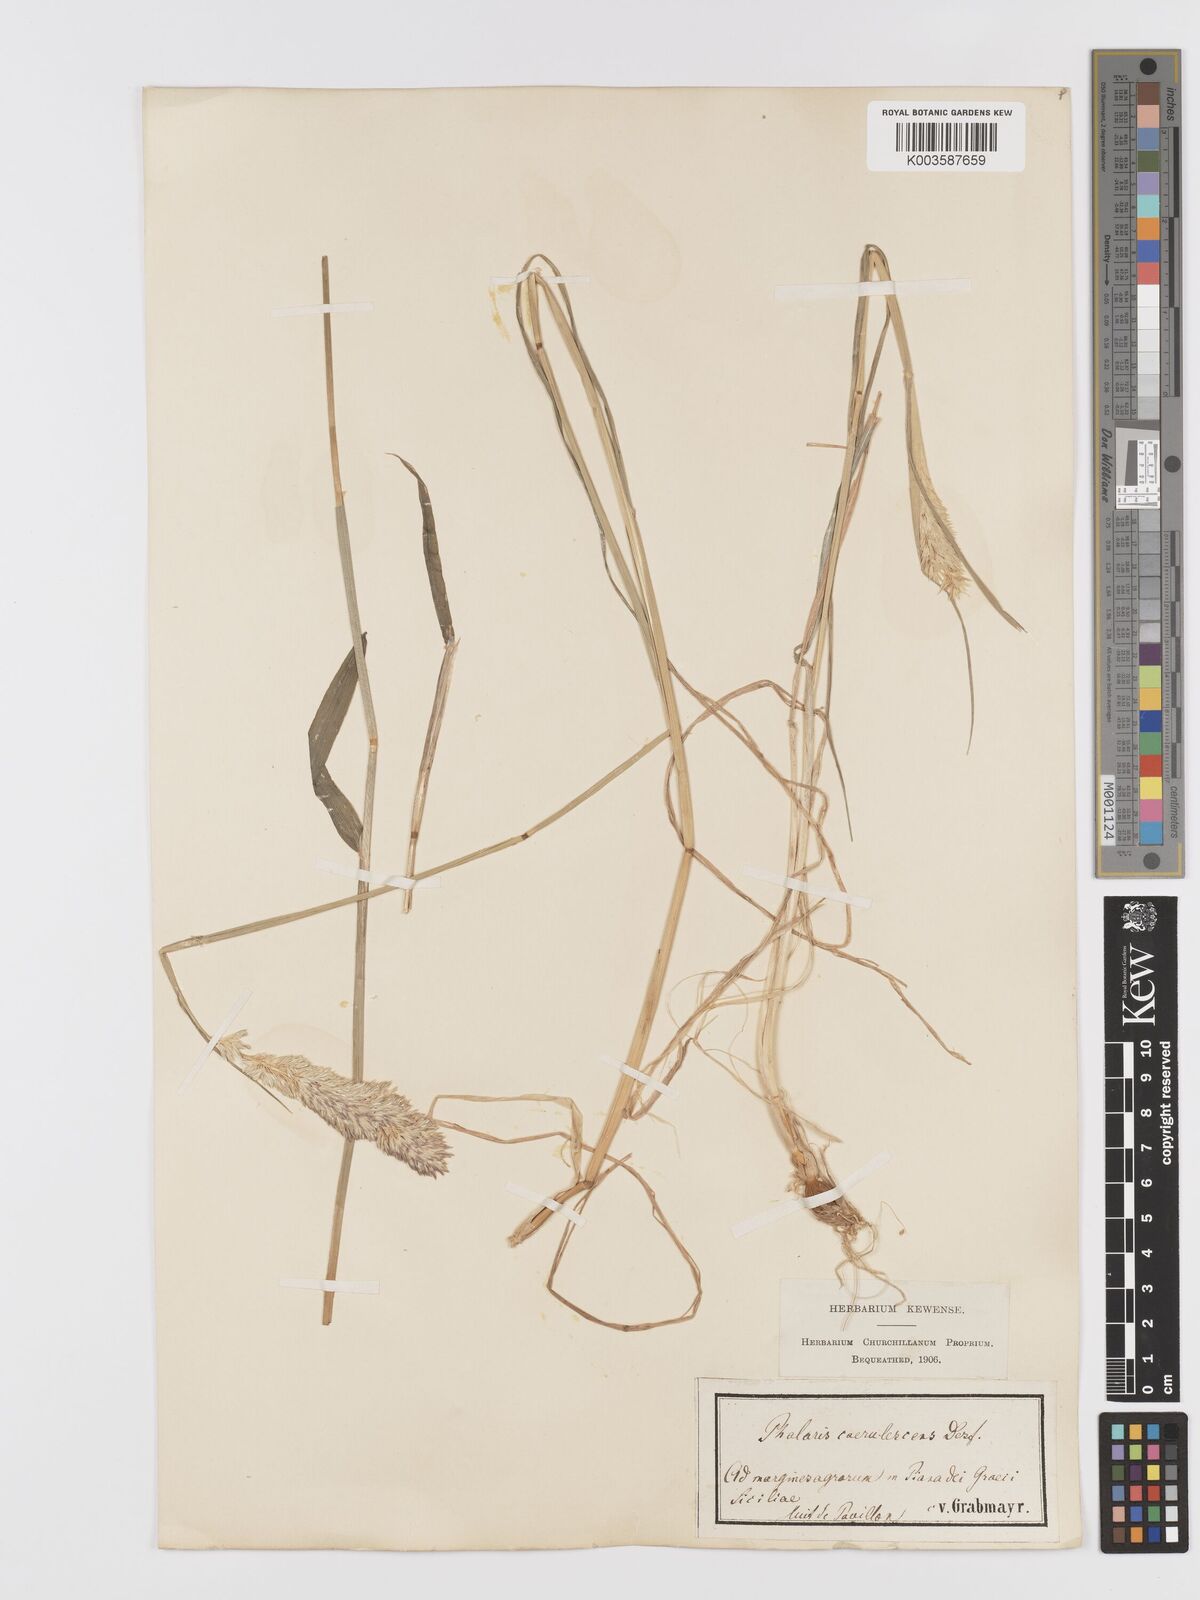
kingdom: Plantae
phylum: Tracheophyta
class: Liliopsida
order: Poales
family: Poaceae
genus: Phalaris
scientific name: Phalaris coerulescens
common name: Sunolgrass
